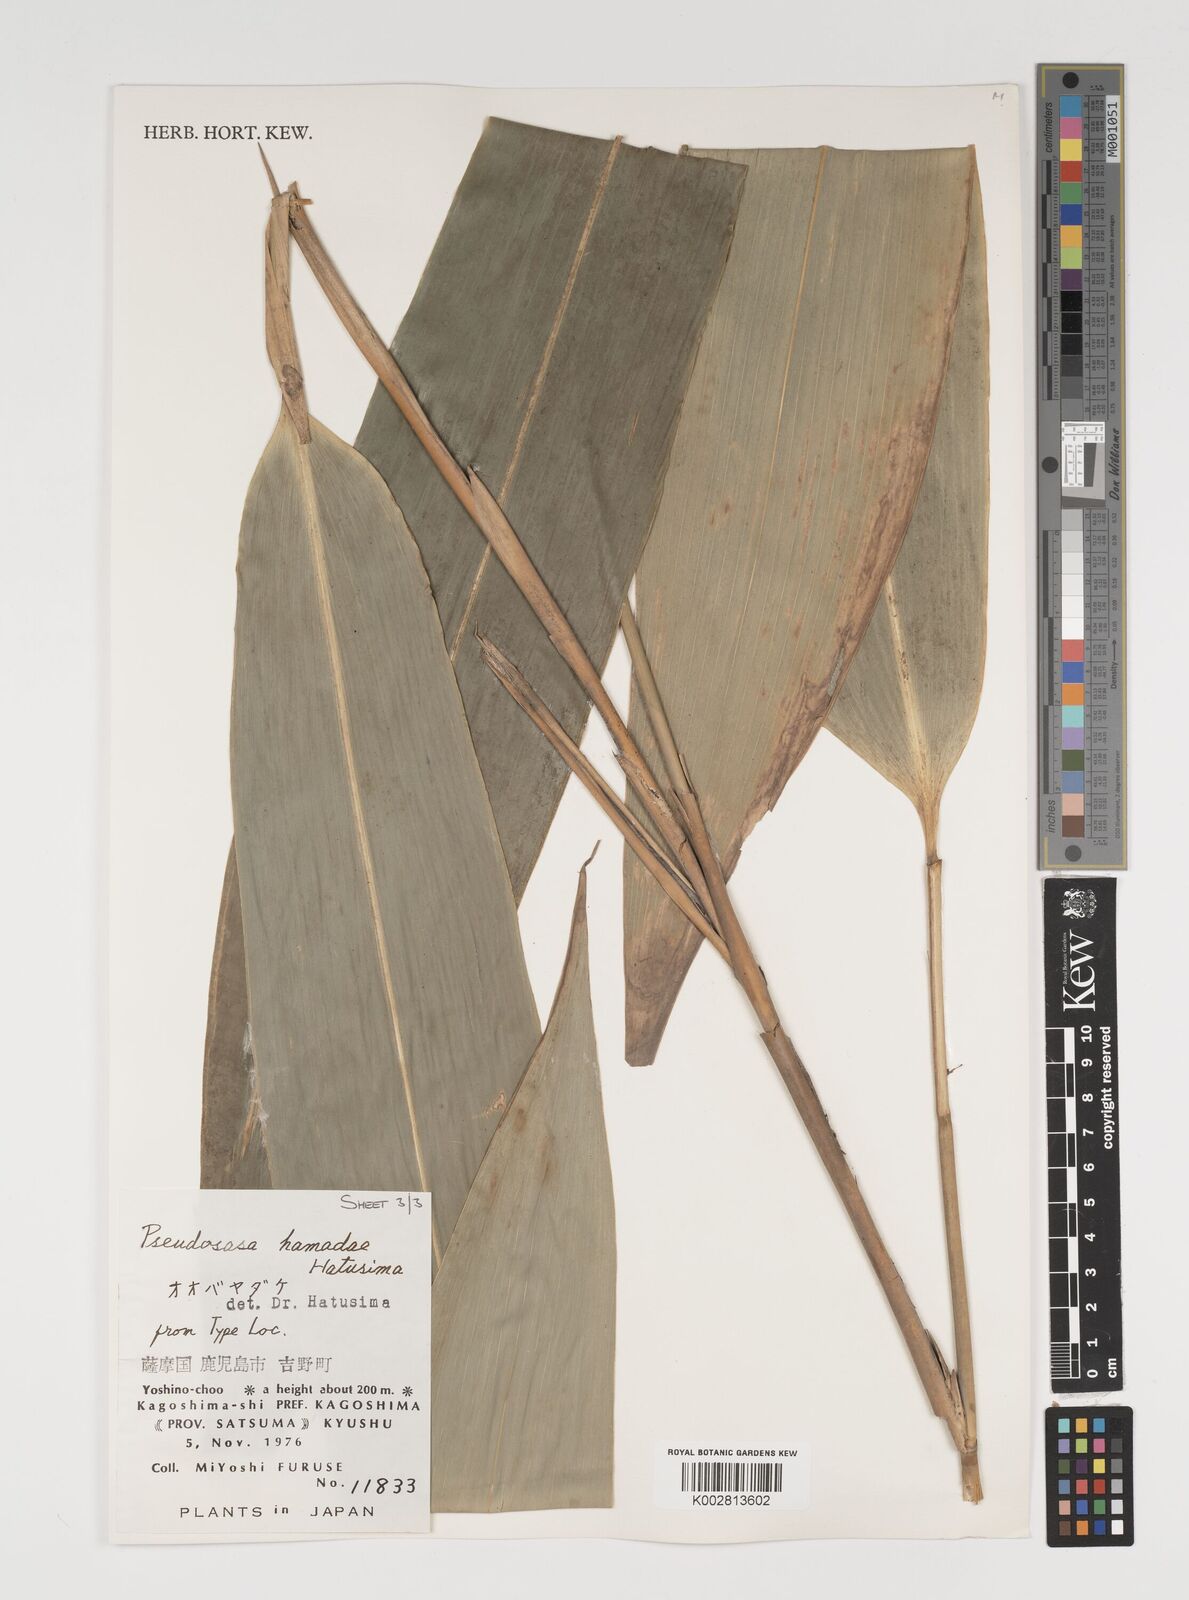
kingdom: Plantae
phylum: Tracheophyta
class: Liliopsida
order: Poales
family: Poaceae
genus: Indocalamus
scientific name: Indocalamus tessellatus
